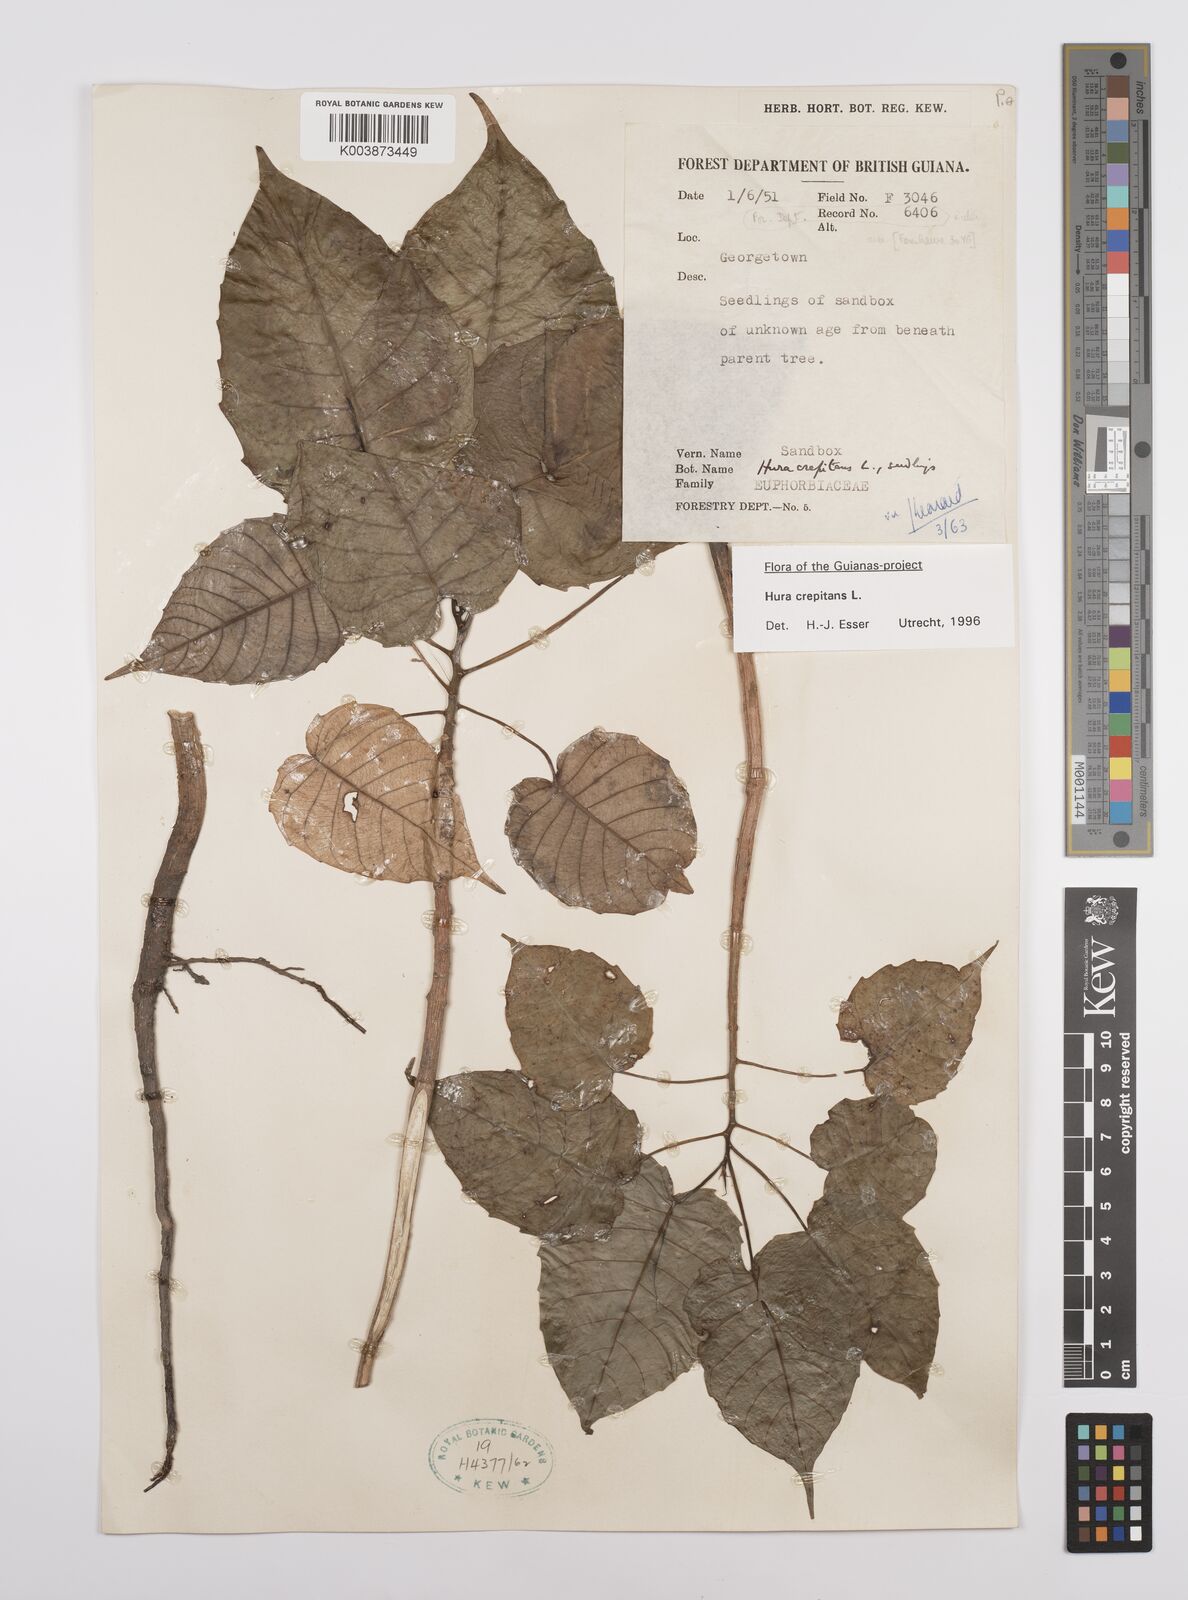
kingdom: Plantae
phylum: Tracheophyta
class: Magnoliopsida
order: Malpighiales
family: Euphorbiaceae
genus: Hura
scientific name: Hura crepitans
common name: Sandboxtree
